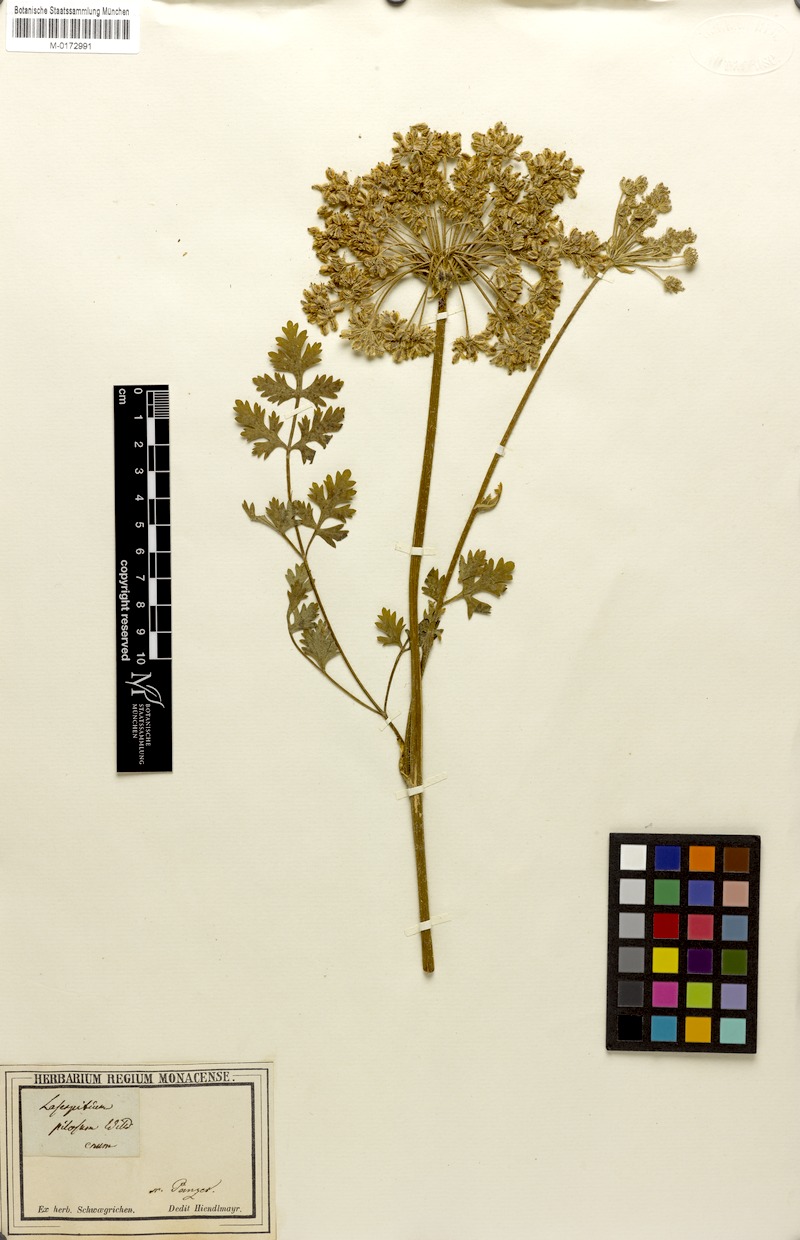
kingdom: Plantae
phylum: Tracheophyta
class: Magnoliopsida
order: Apiales
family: Apiaceae
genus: Silphiodaucus
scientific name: Silphiodaucus hispidus
